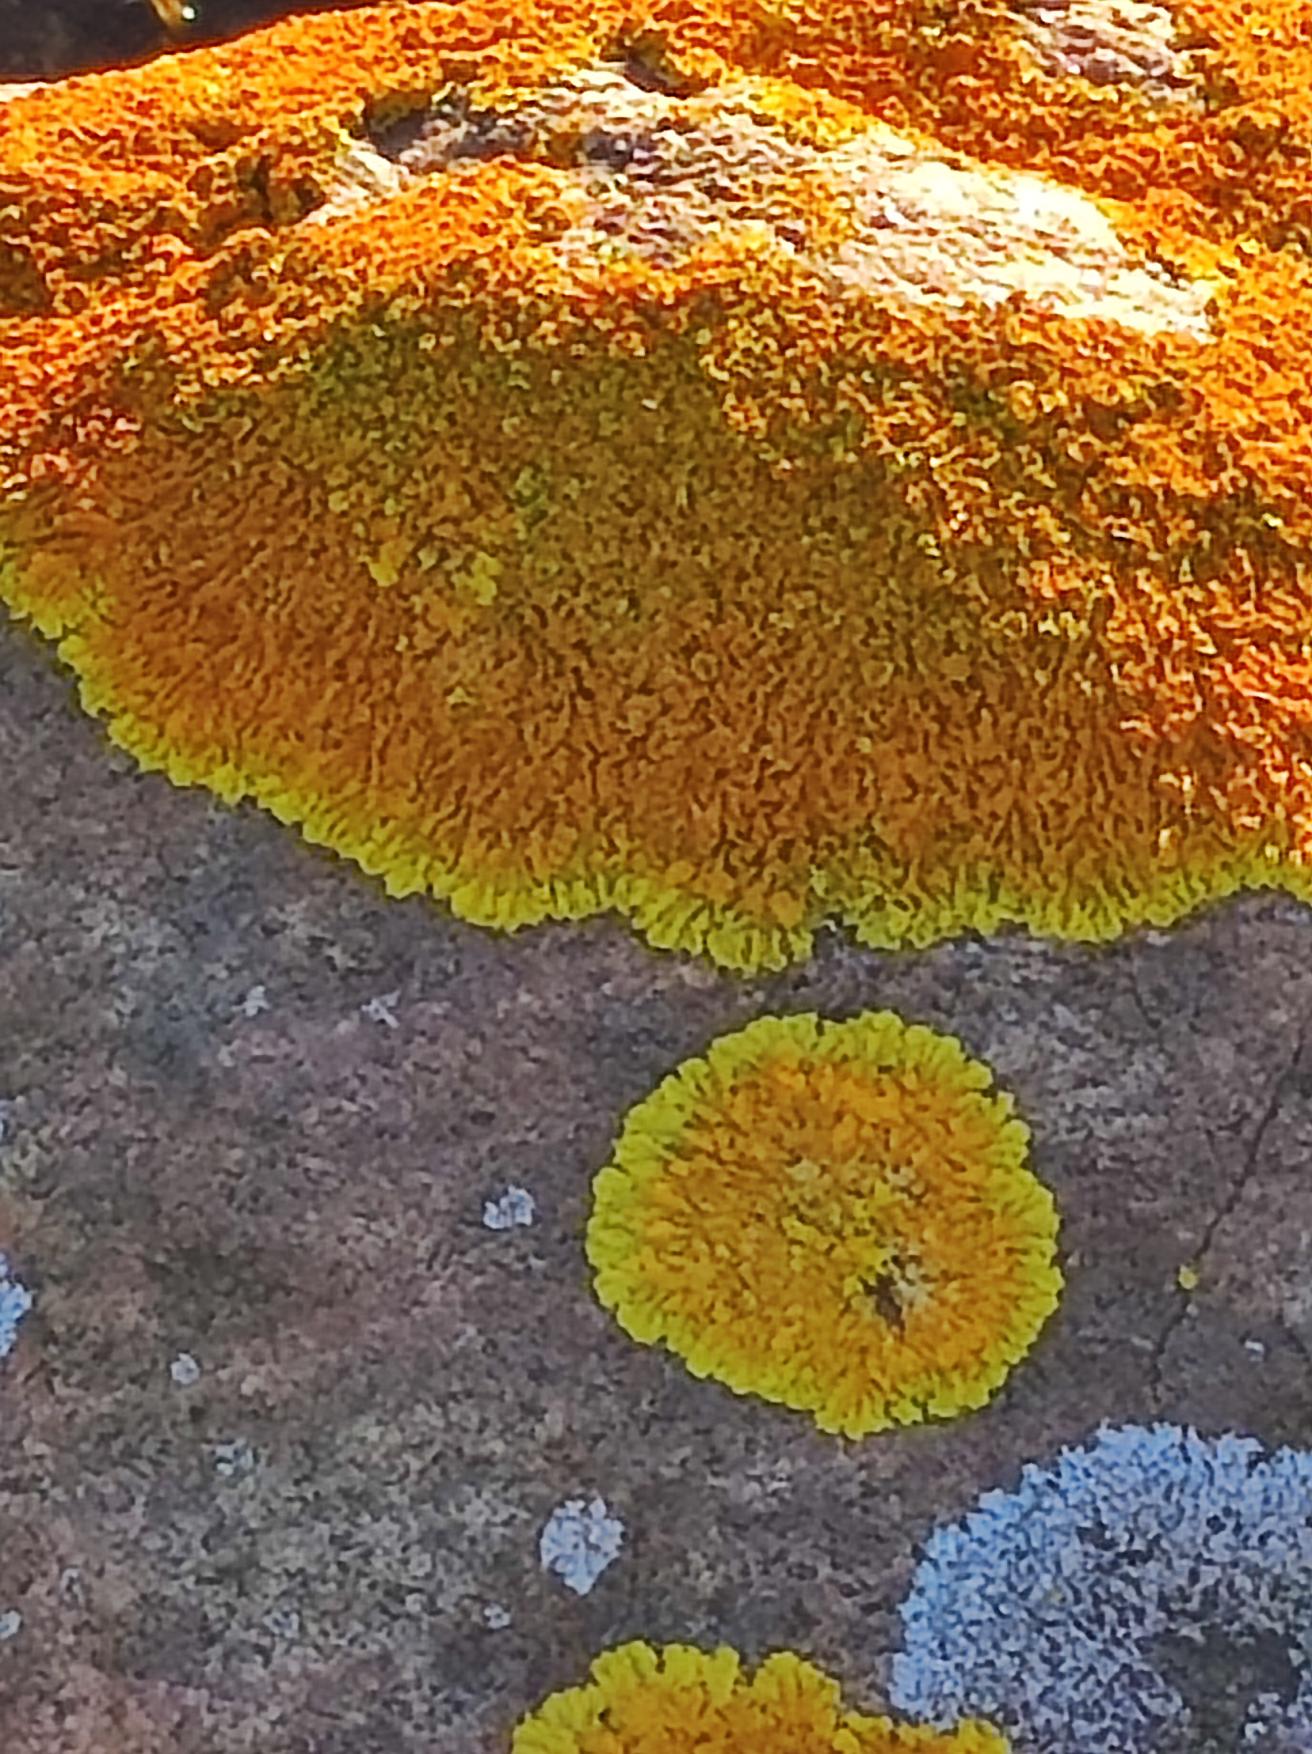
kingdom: Fungi
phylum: Ascomycota
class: Lecanoromycetes
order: Teloschistales
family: Teloschistaceae
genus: Xanthoria
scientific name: Xanthoria calcicola
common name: Vortet væggelav
